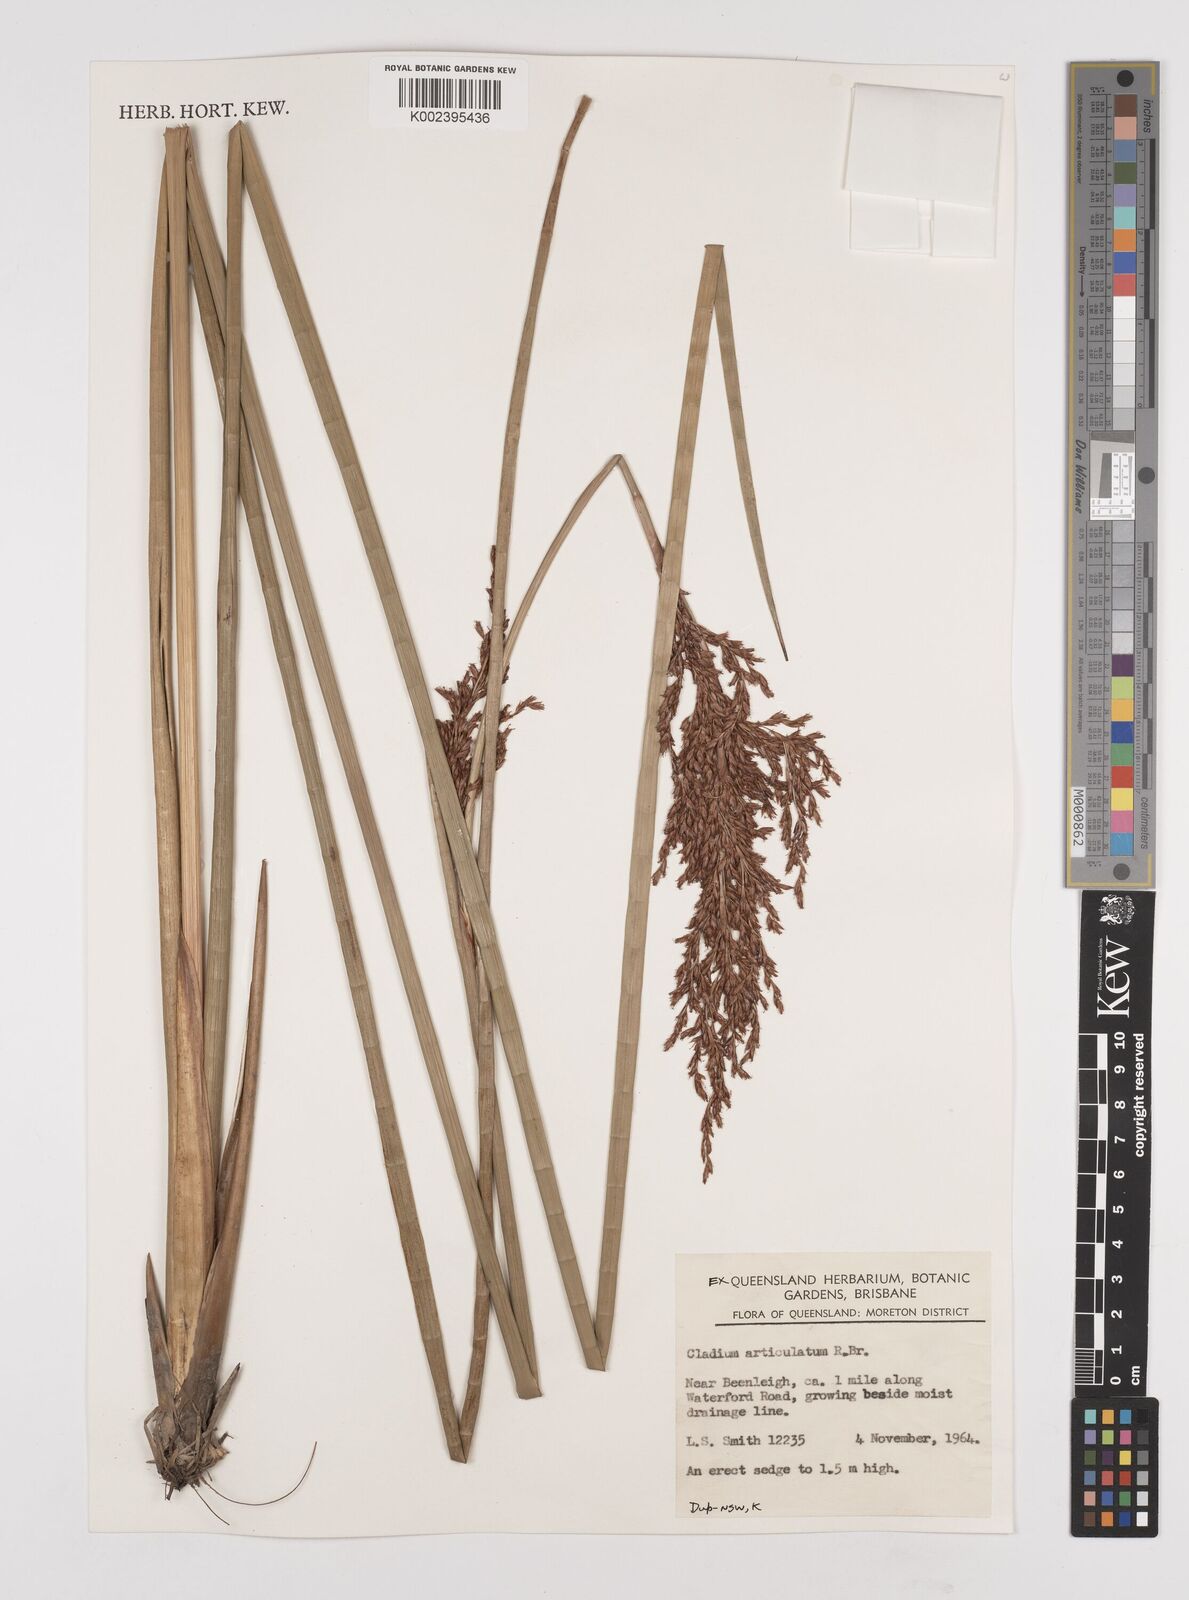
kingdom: Plantae
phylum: Tracheophyta
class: Liliopsida
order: Poales
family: Cyperaceae
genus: Machaerina
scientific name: Machaerina articulata
